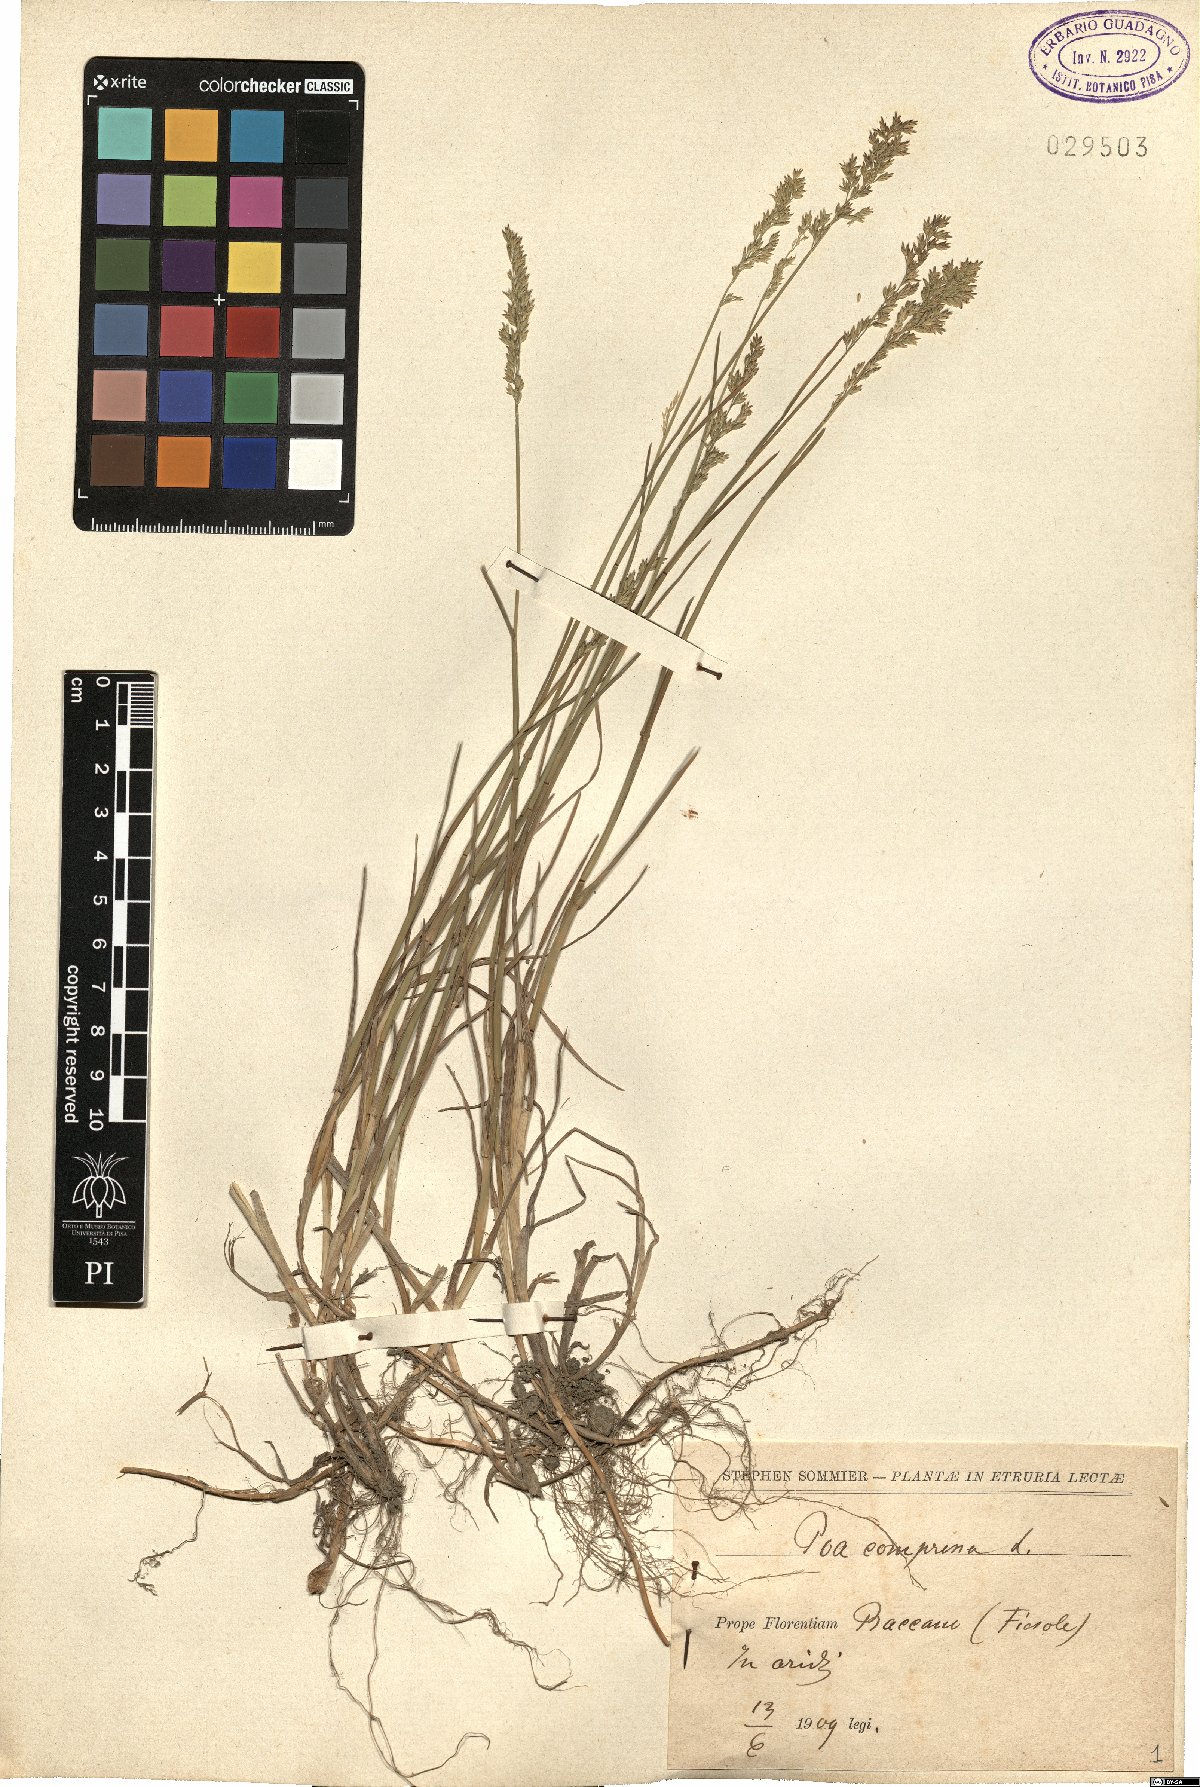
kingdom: Plantae
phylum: Tracheophyta
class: Liliopsida
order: Poales
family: Poaceae
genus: Poa
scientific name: Poa compressa
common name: Canada bluegrass
